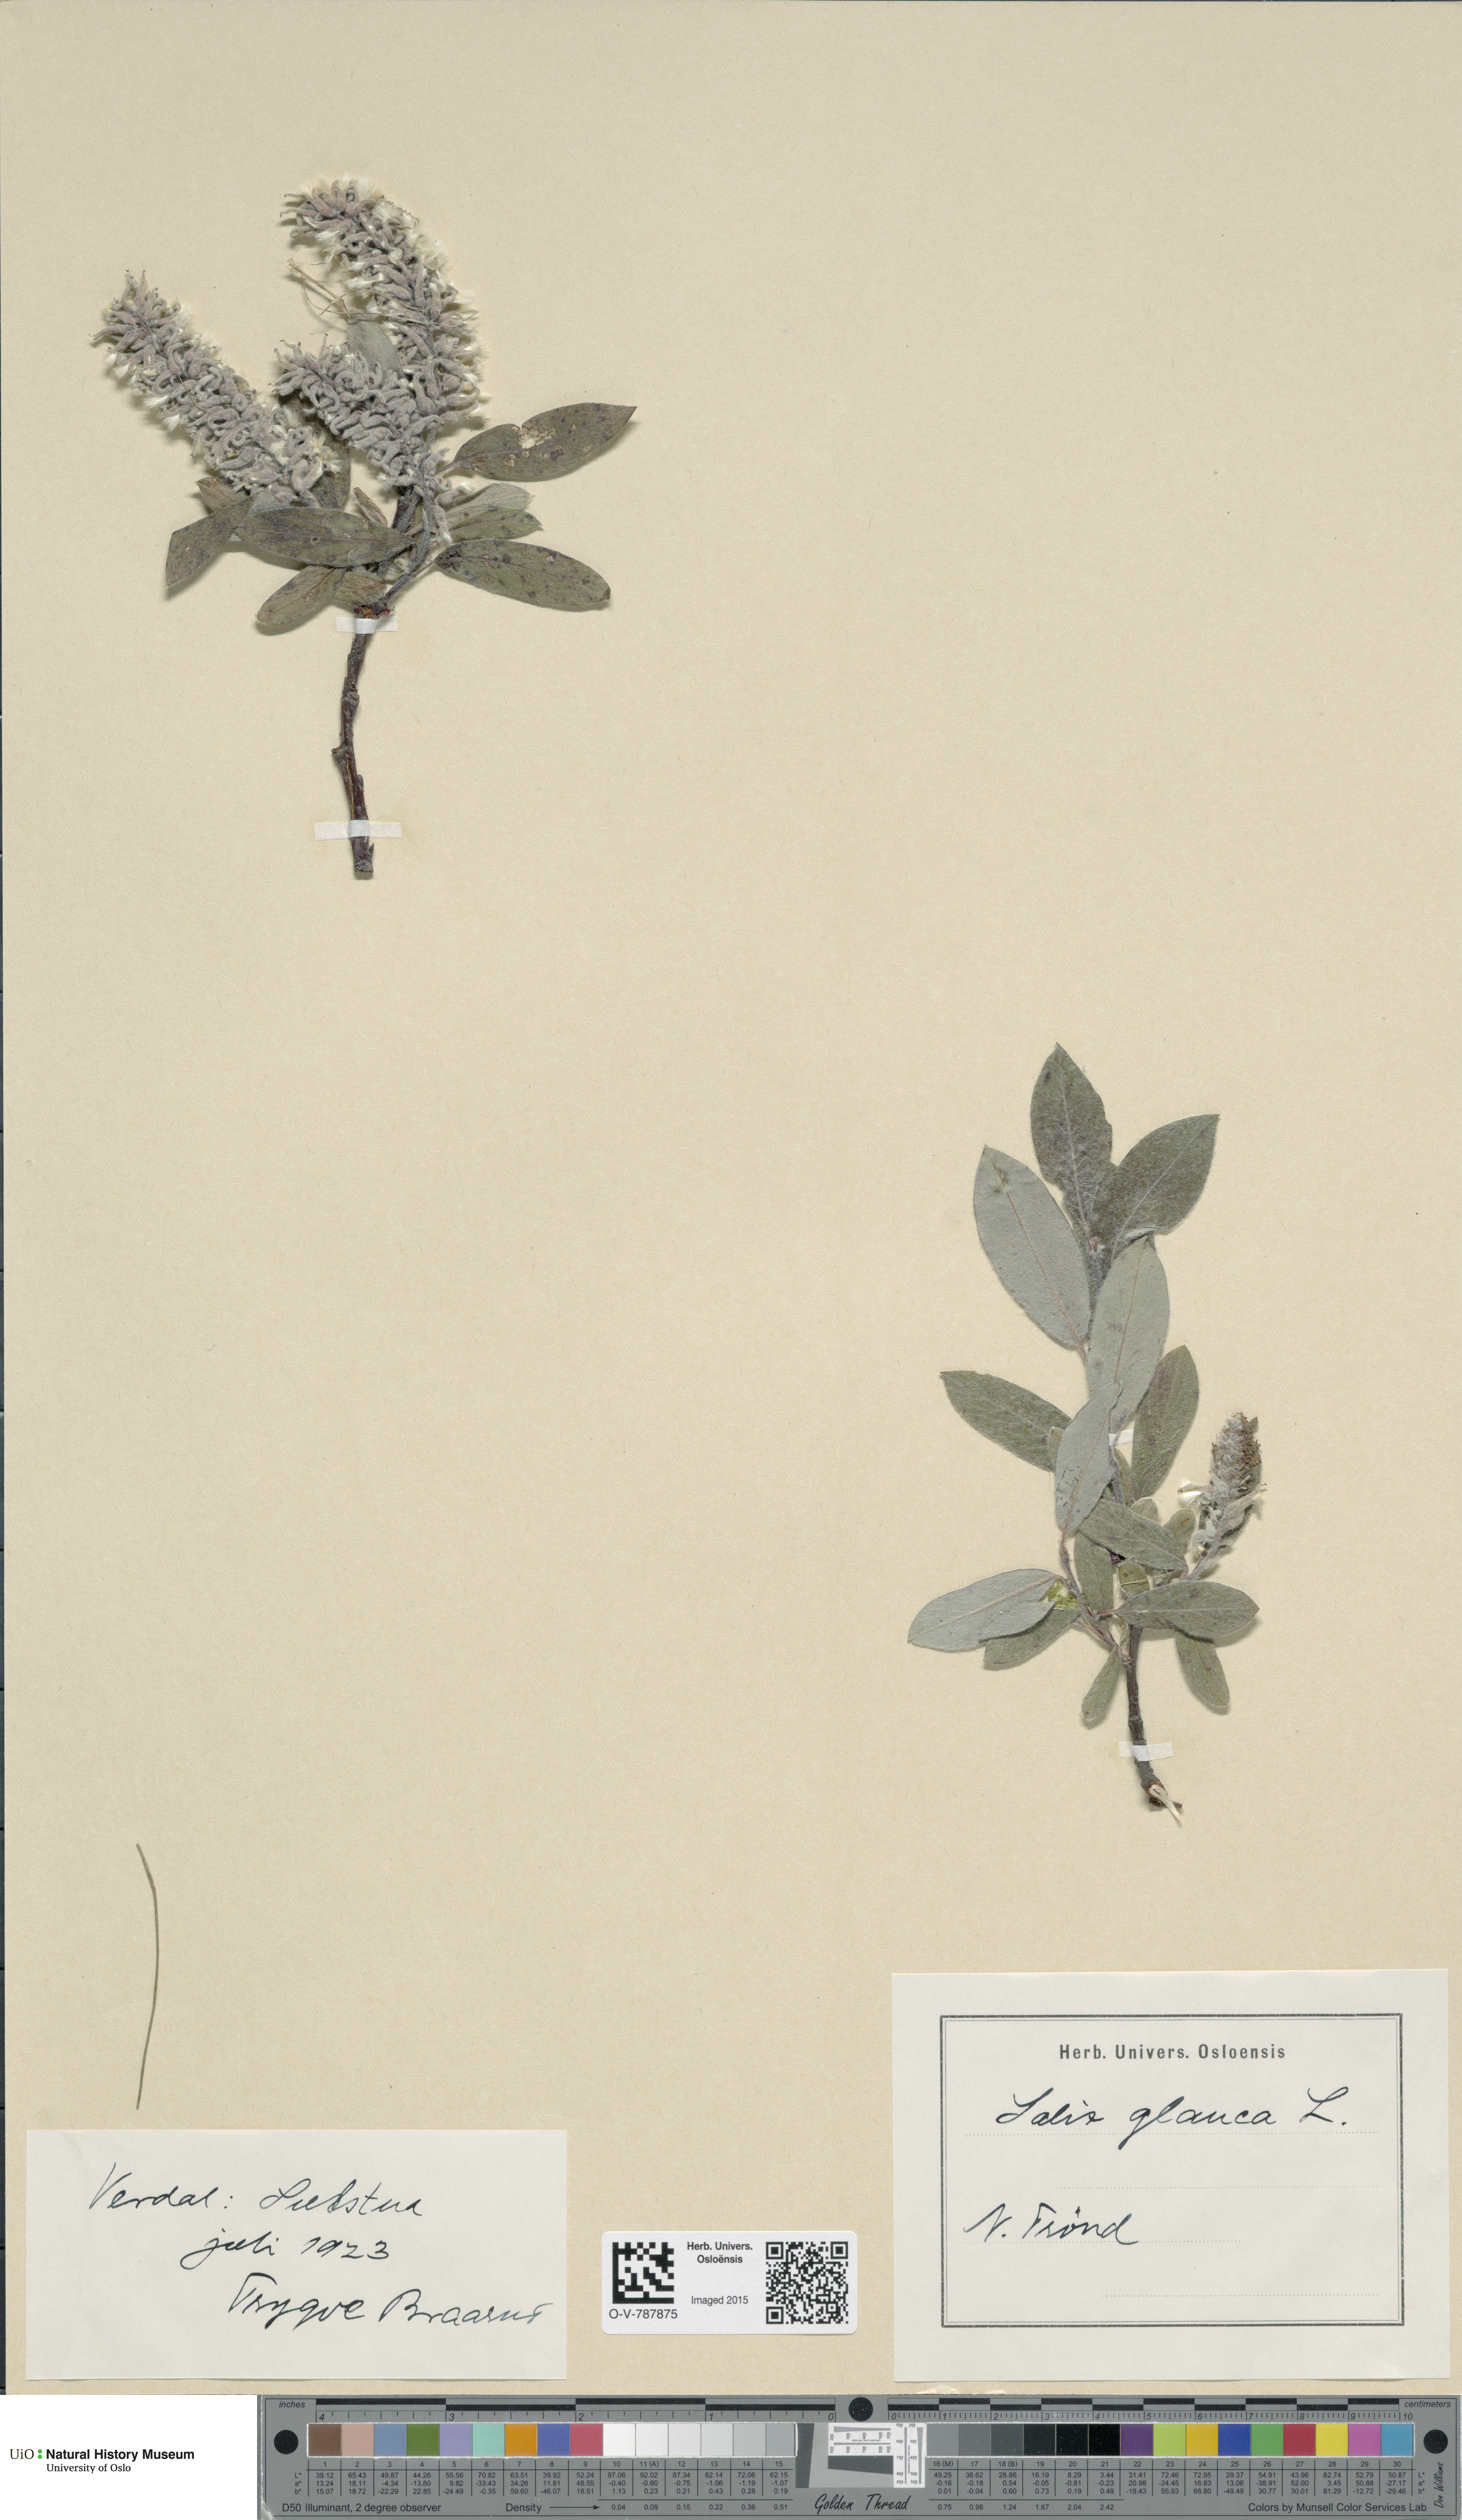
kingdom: Plantae
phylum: Tracheophyta
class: Magnoliopsida
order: Malpighiales
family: Salicaceae
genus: Salix
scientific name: Salix glauca
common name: Glaucous willow
